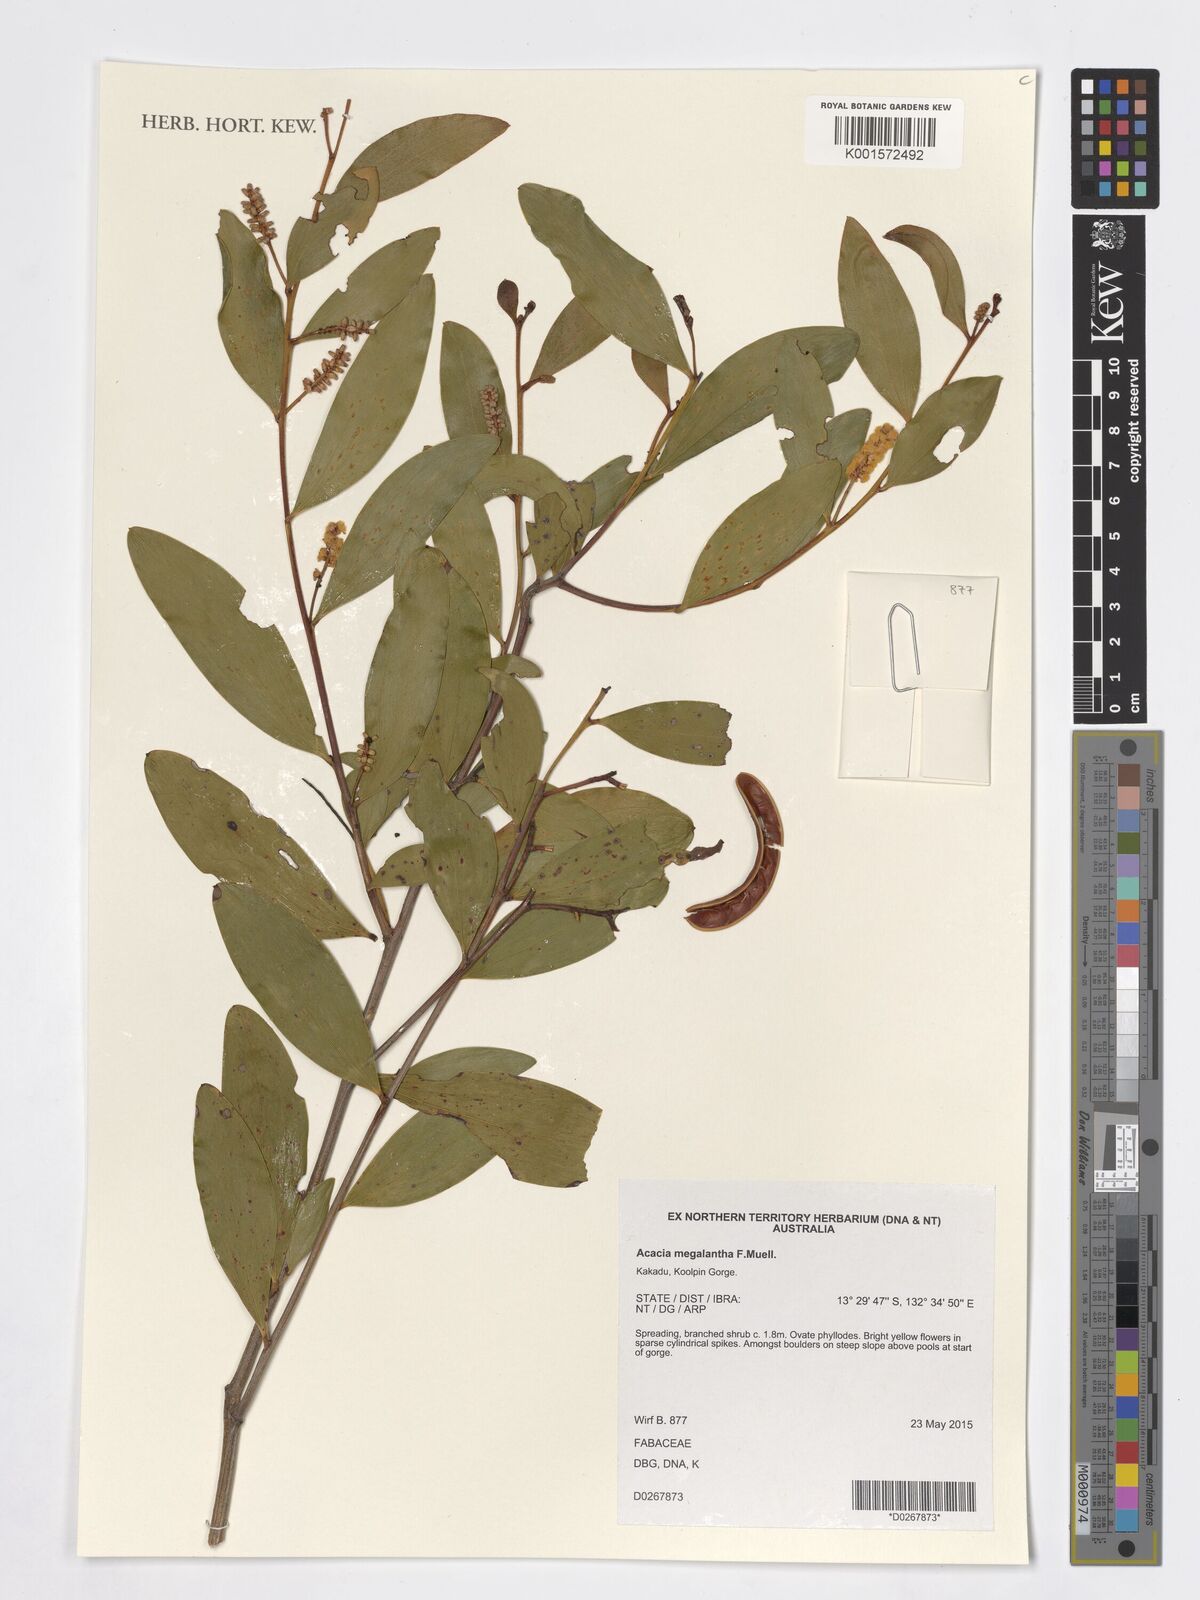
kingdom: Plantae
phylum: Tracheophyta
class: Magnoliopsida
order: Fabales
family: Fabaceae
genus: Acacia
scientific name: Acacia megalantha
